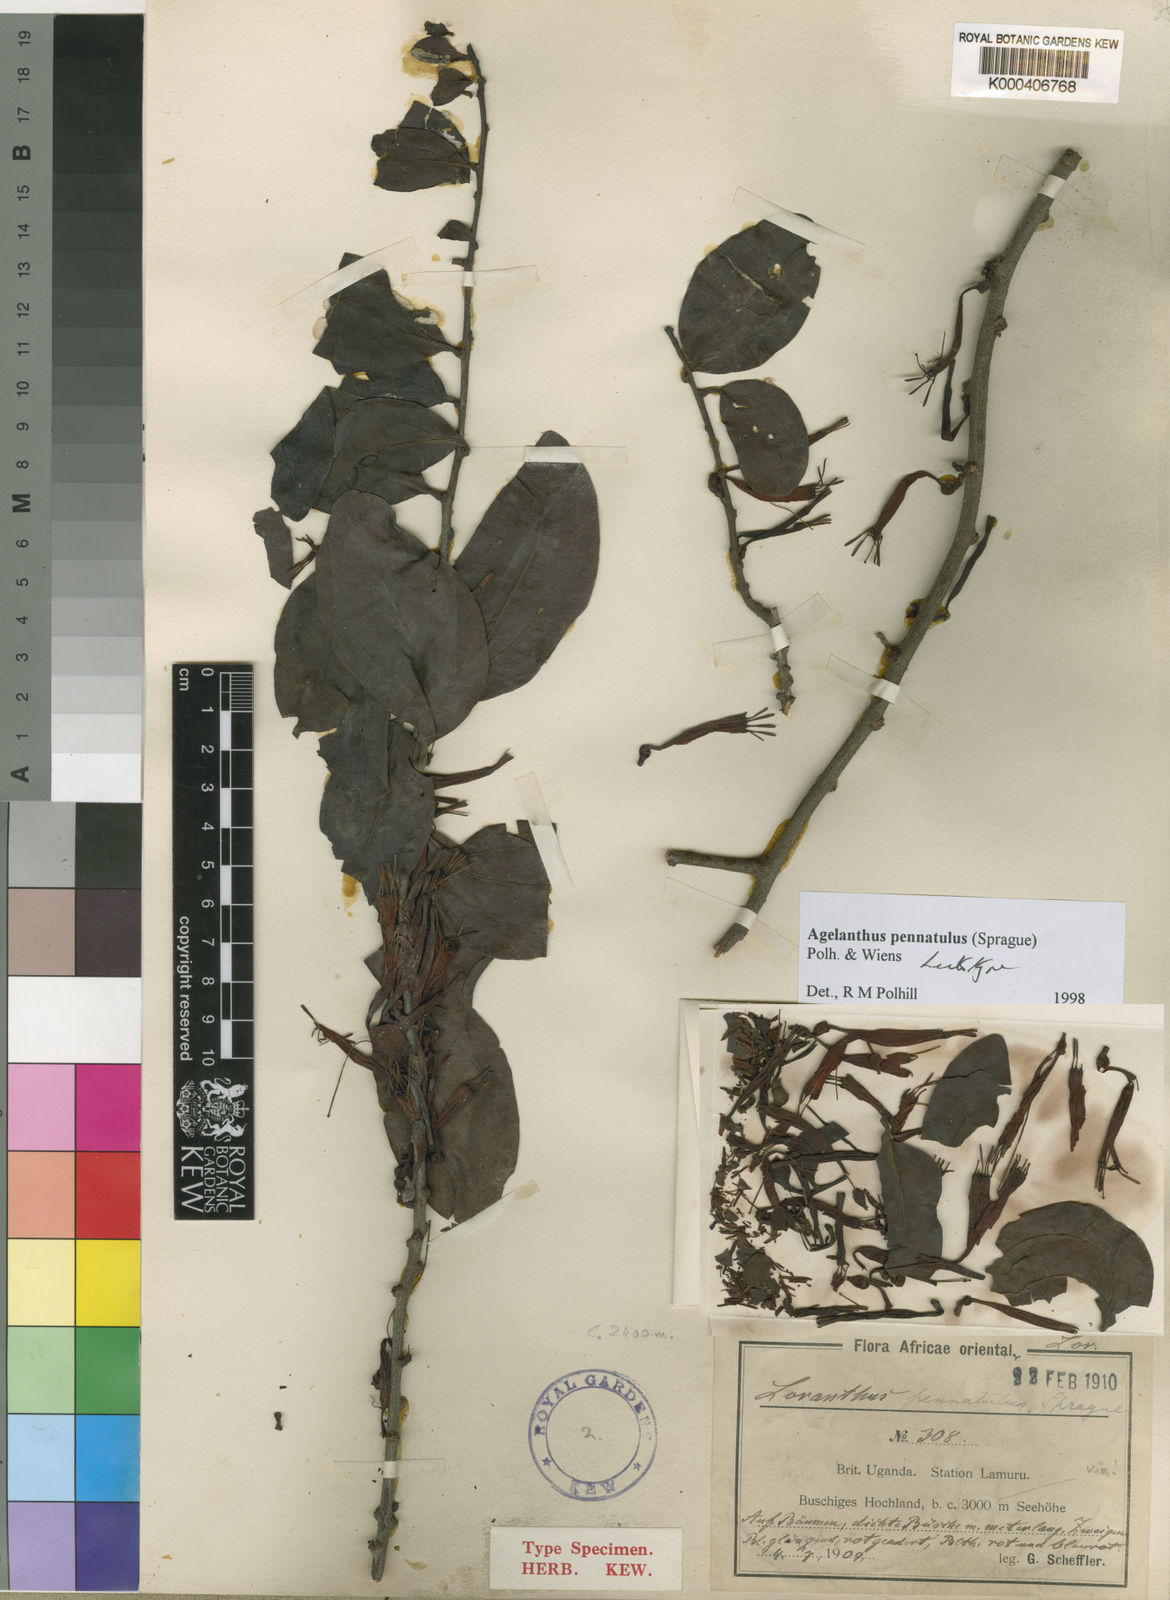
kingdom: Plantae
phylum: Tracheophyta
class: Magnoliopsida
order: Santalales
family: Loranthaceae
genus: Agelanthus
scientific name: Agelanthus pennatulus
